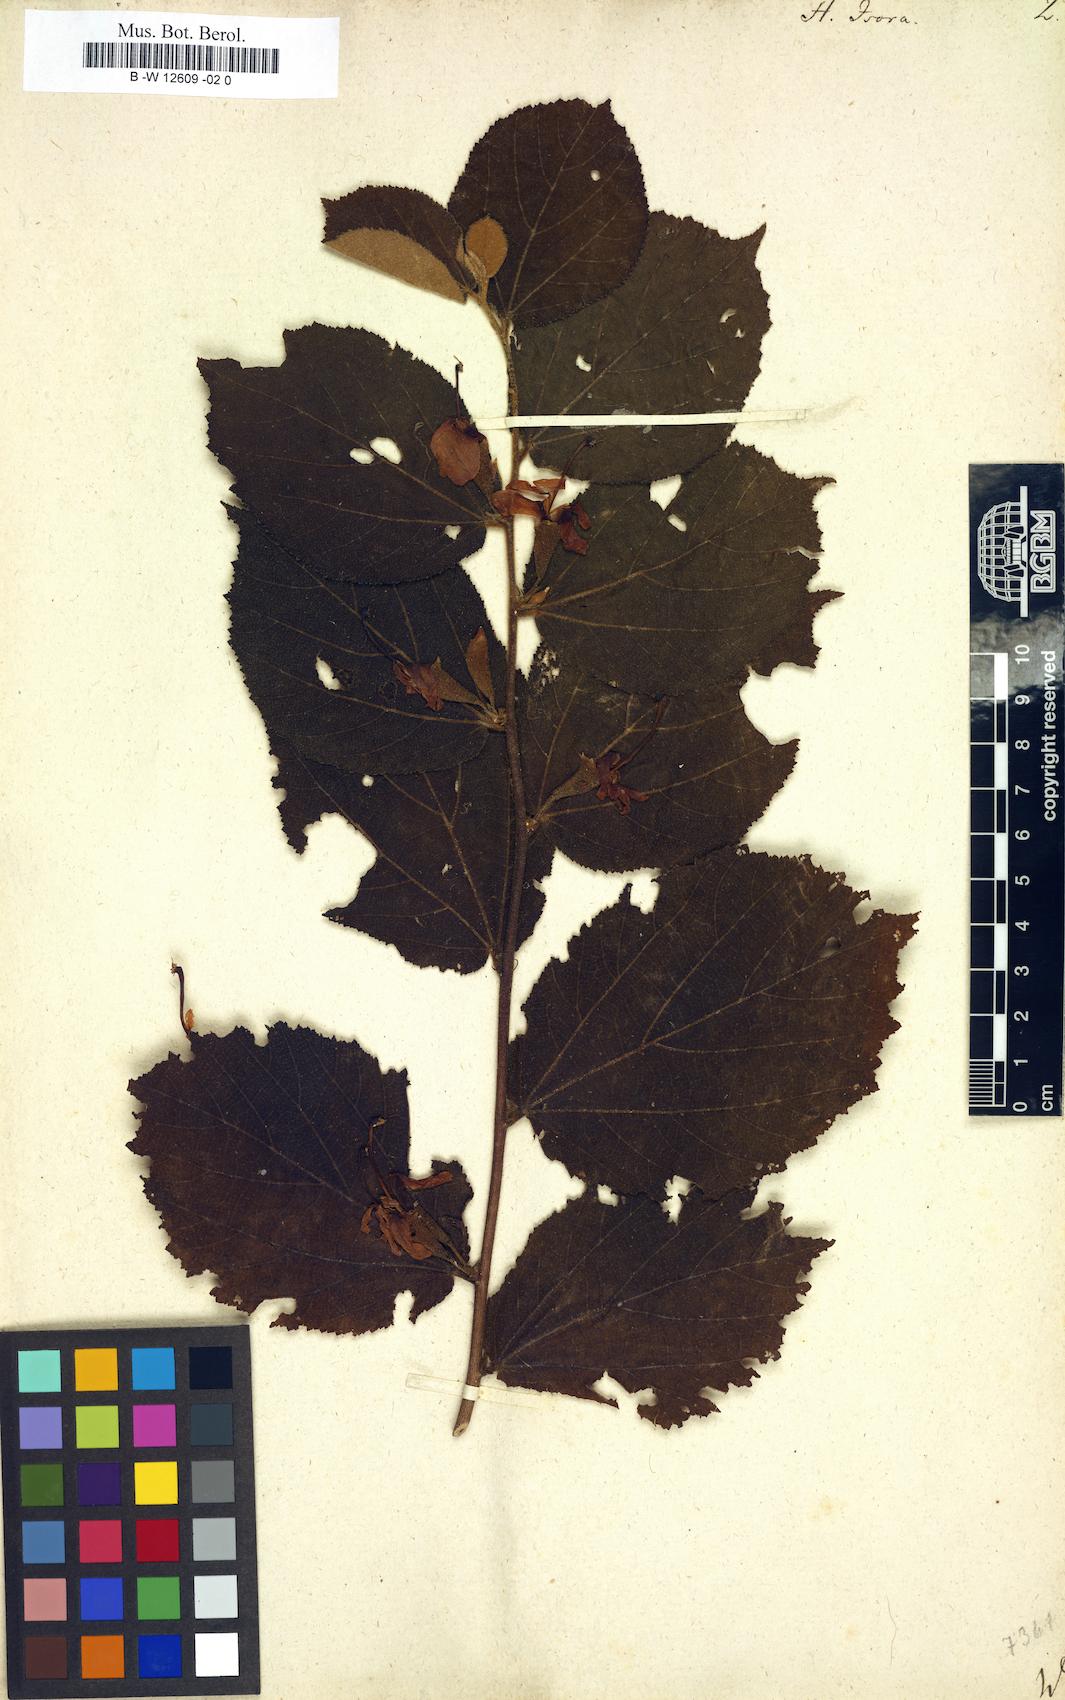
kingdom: Plantae
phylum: Tracheophyta
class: Magnoliopsida
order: Malvales
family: Malvaceae
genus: Helicteres
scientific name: Helicteres isora
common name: East indian screwtree
